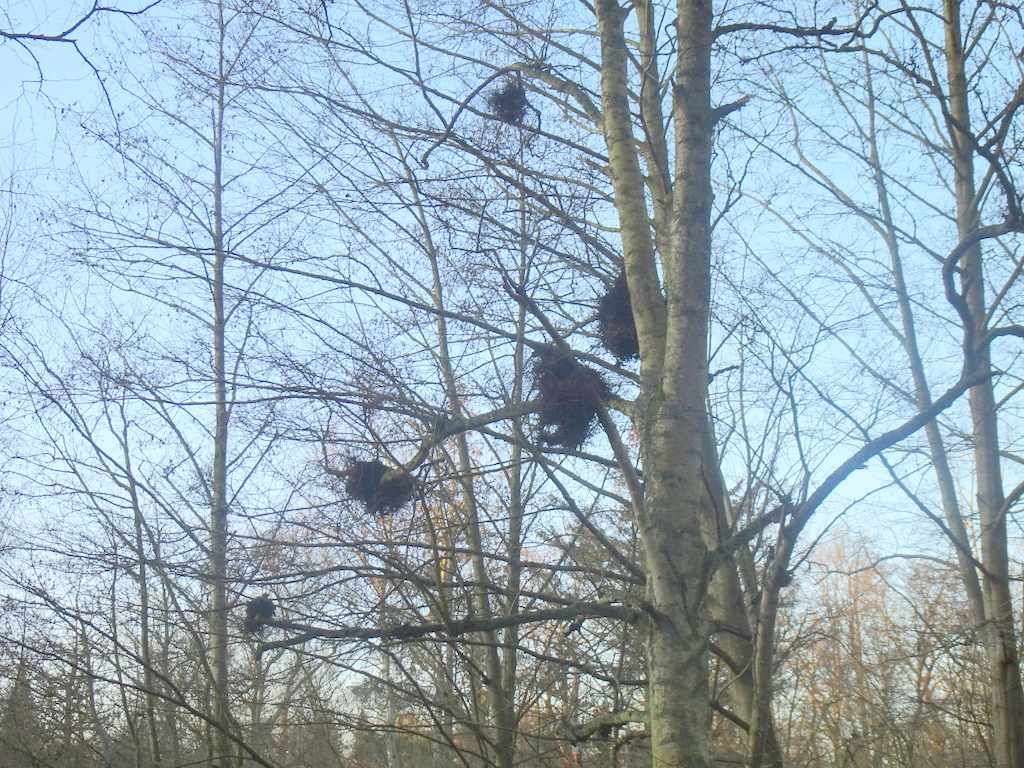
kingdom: Fungi
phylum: Ascomycota
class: Taphrinomycetes
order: Taphrinales
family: Taphrinaceae
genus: Taphrina
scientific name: Taphrina betulina
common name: hekse-sækdug
